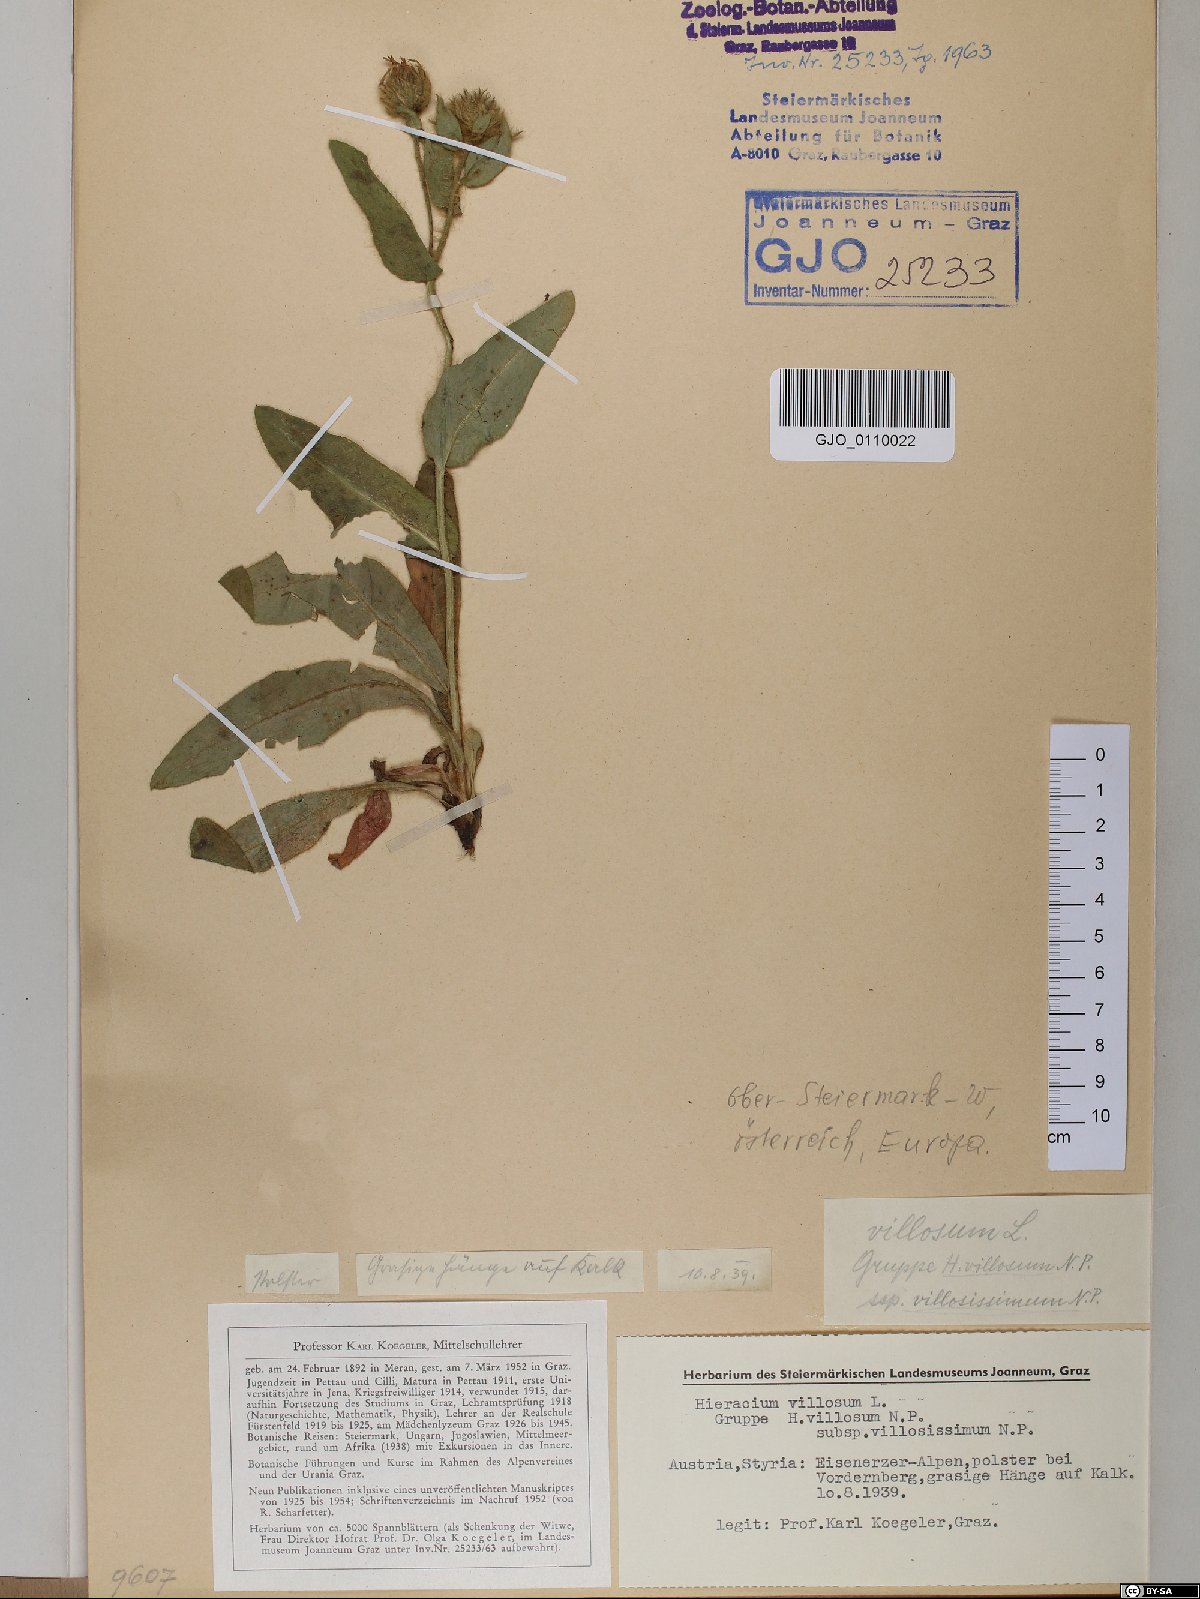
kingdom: Plantae
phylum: Tracheophyta
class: Magnoliopsida
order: Asterales
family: Asteraceae
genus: Hieracium
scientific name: Hieracium villosum
